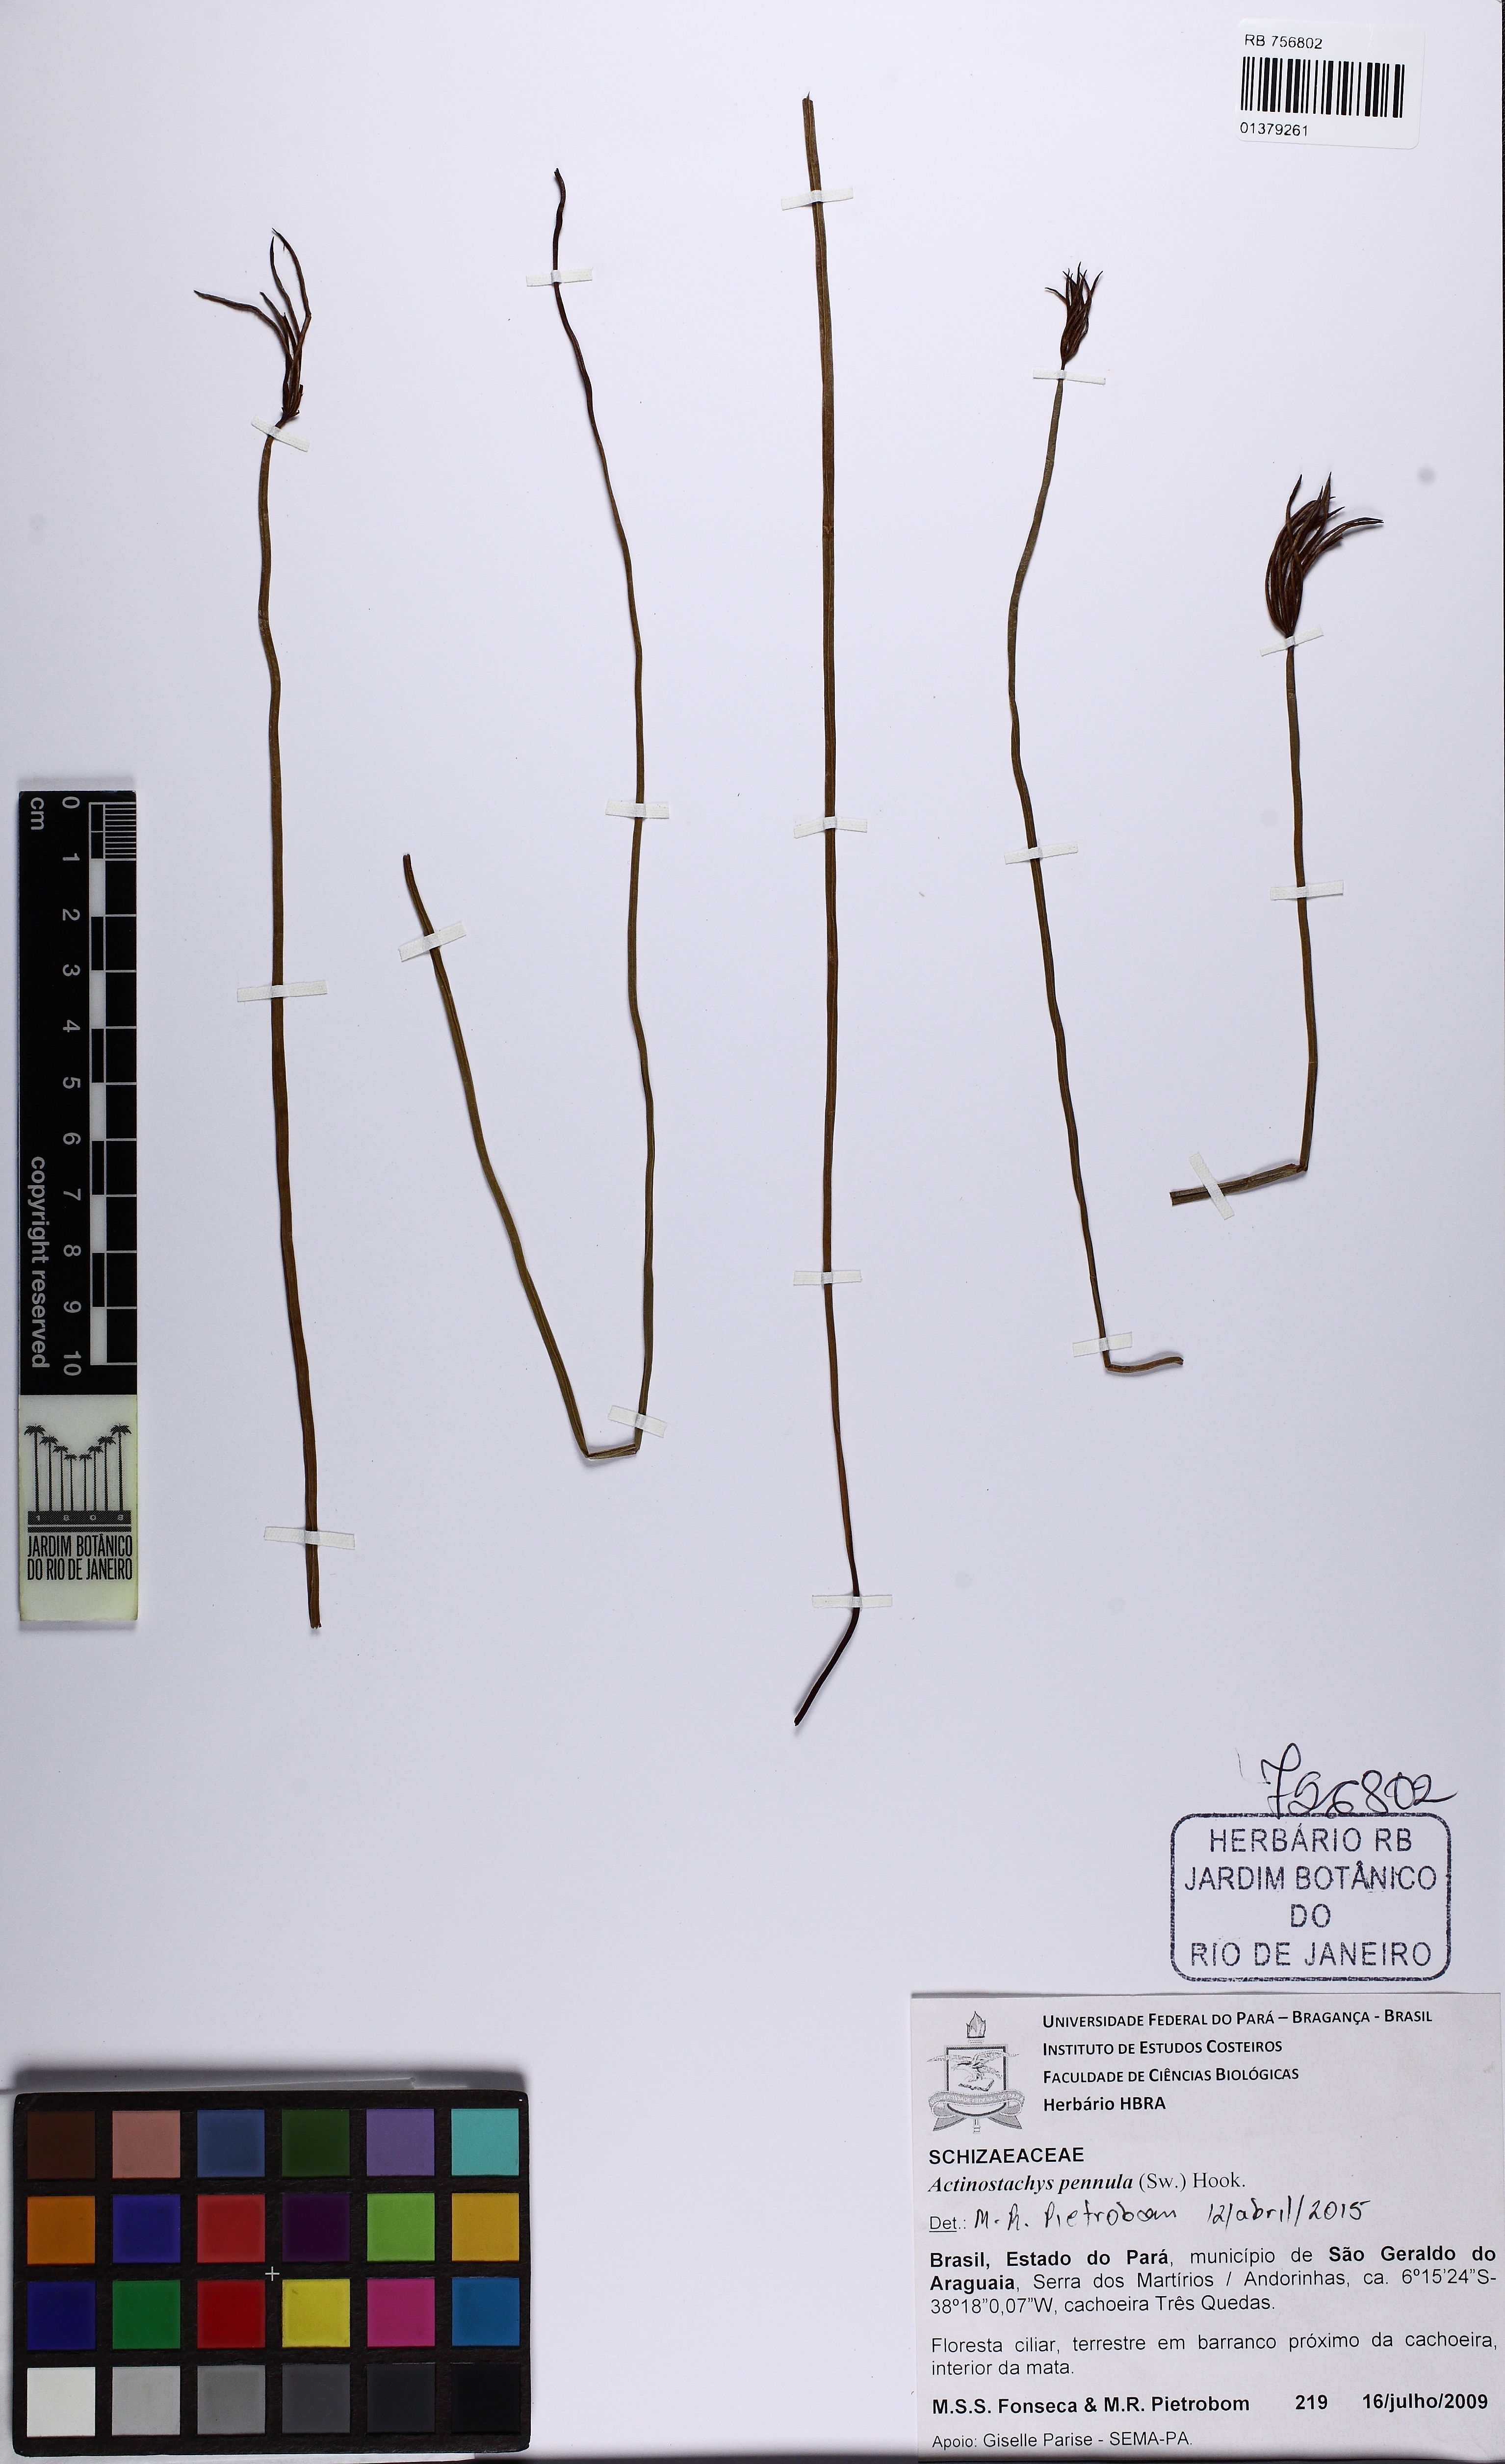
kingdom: Plantae
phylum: Tracheophyta
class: Polypodiopsida
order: Schizaeales
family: Schizaeaceae
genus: Actinostachys
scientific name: Actinostachys pennula
